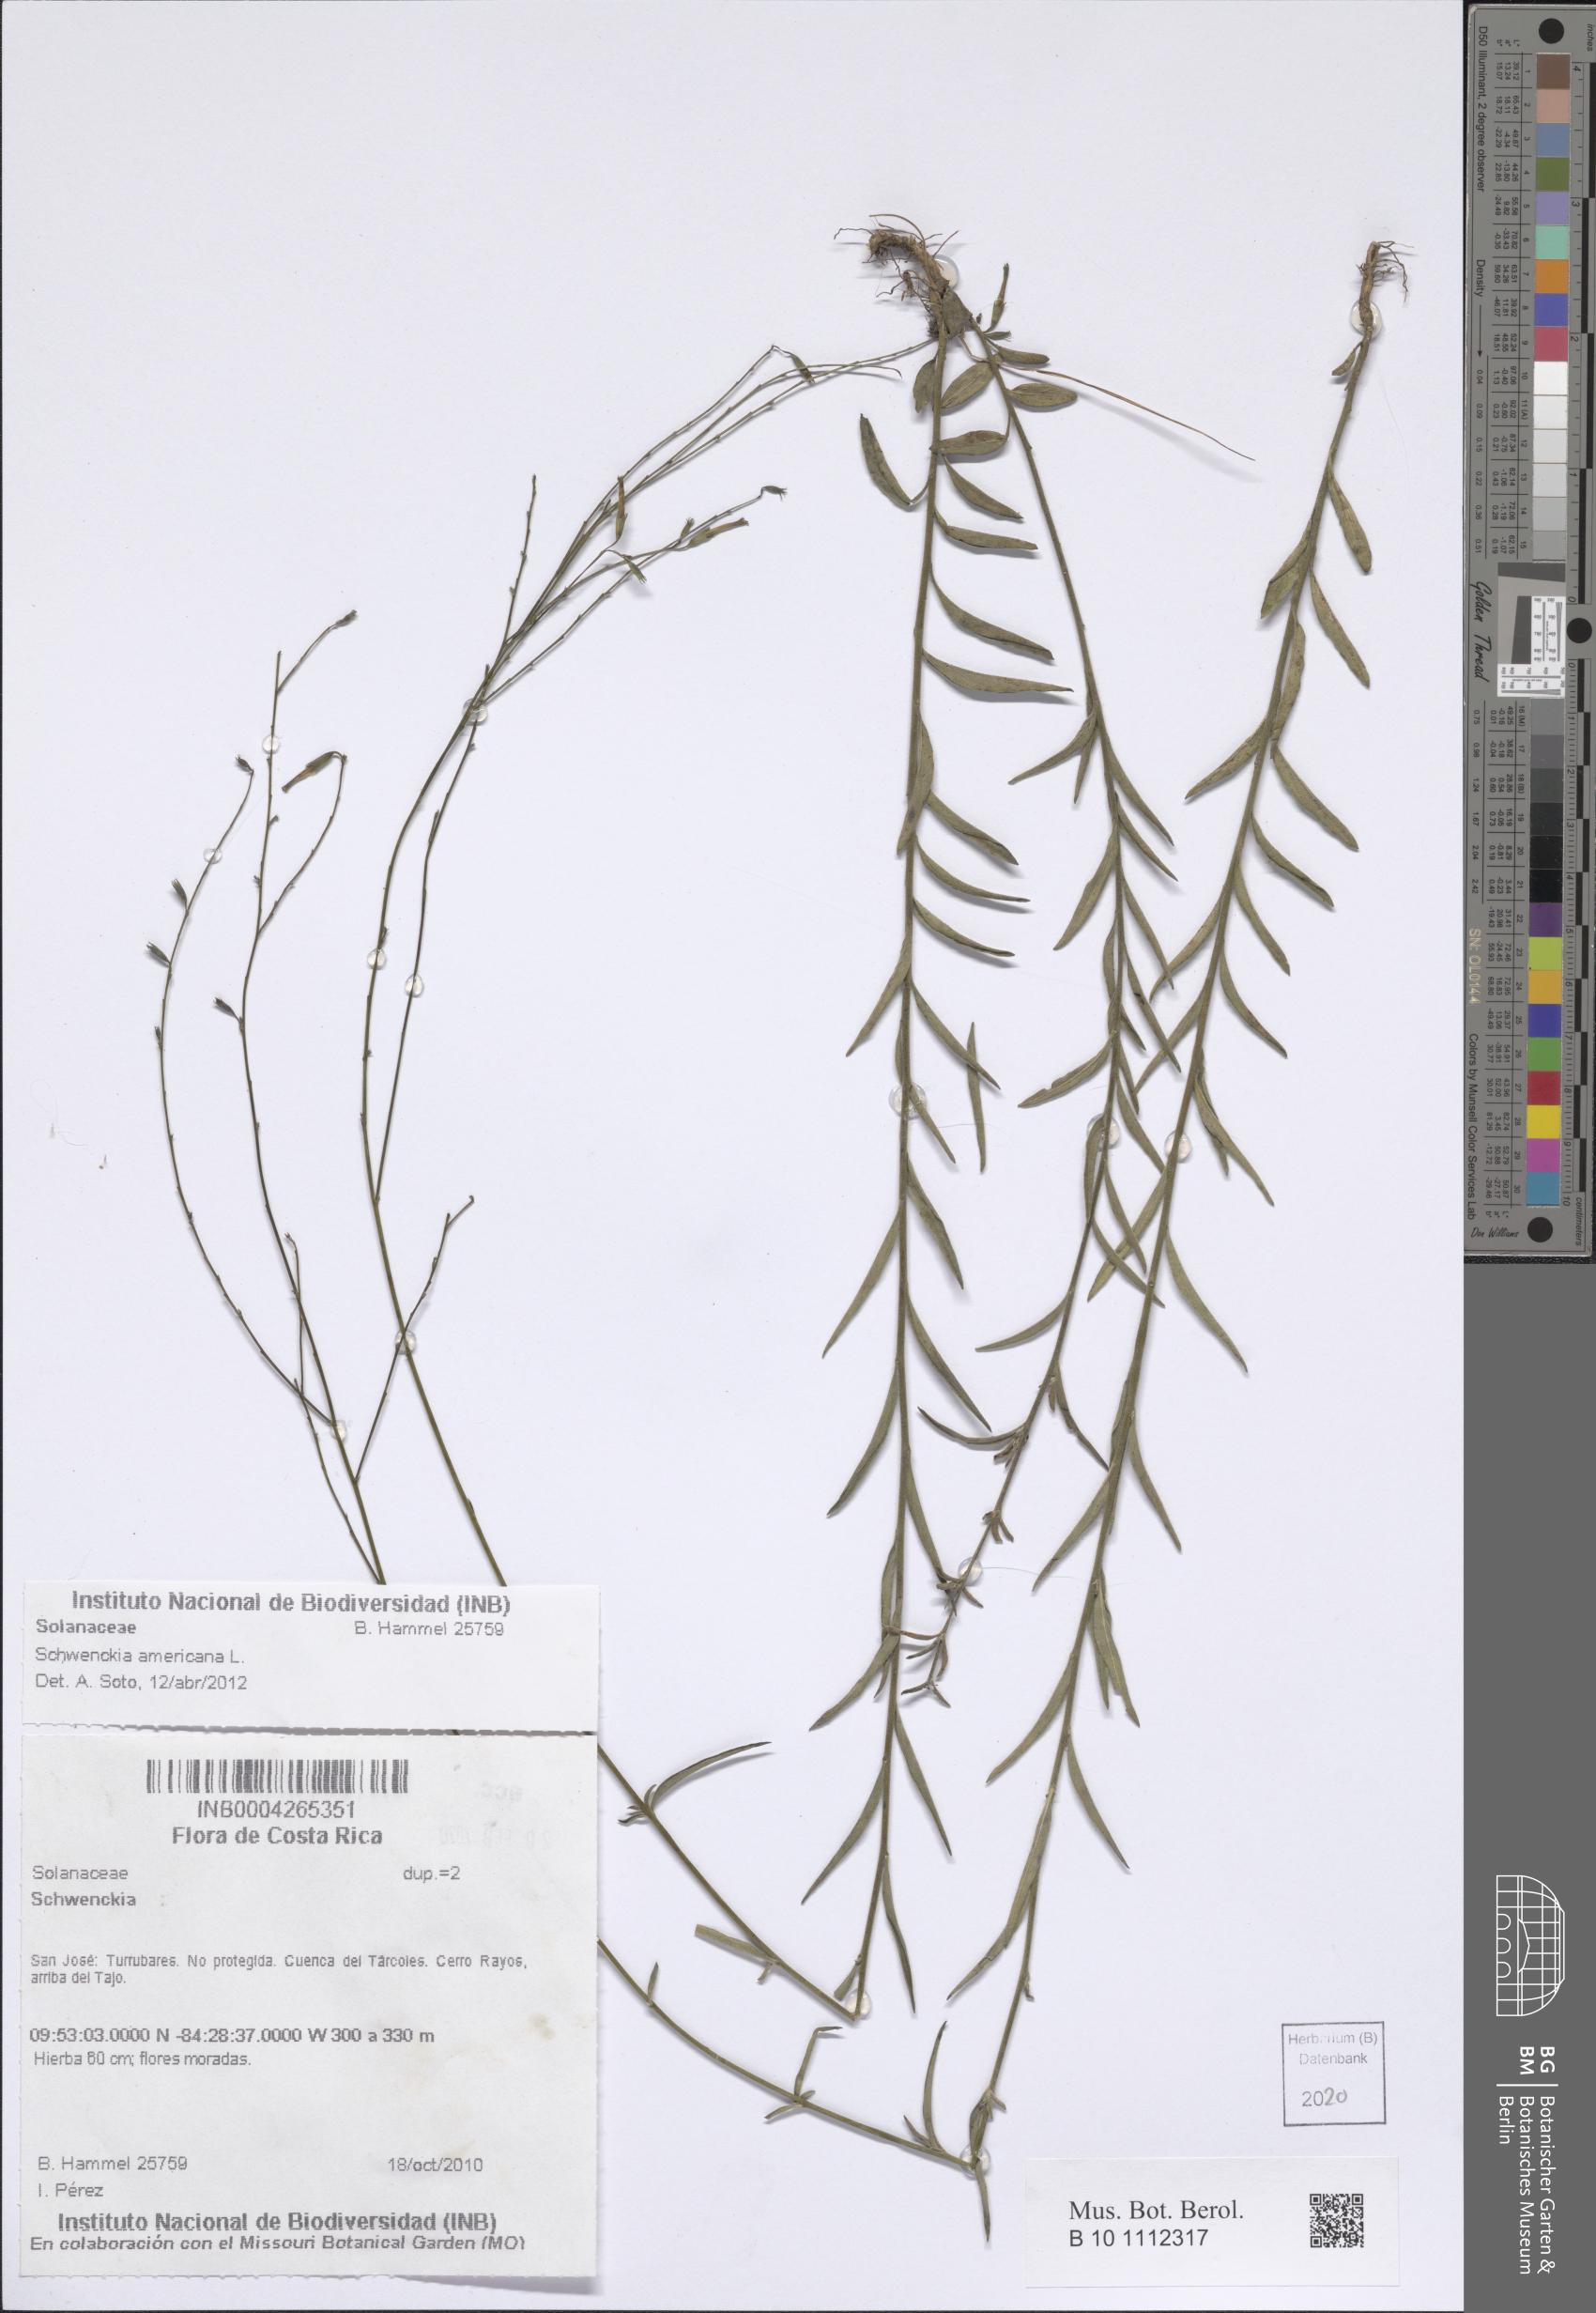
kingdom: Plantae
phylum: Tracheophyta
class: Magnoliopsida
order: Solanales
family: Solanaceae
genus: Schwenckia
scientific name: Schwenckia americana
